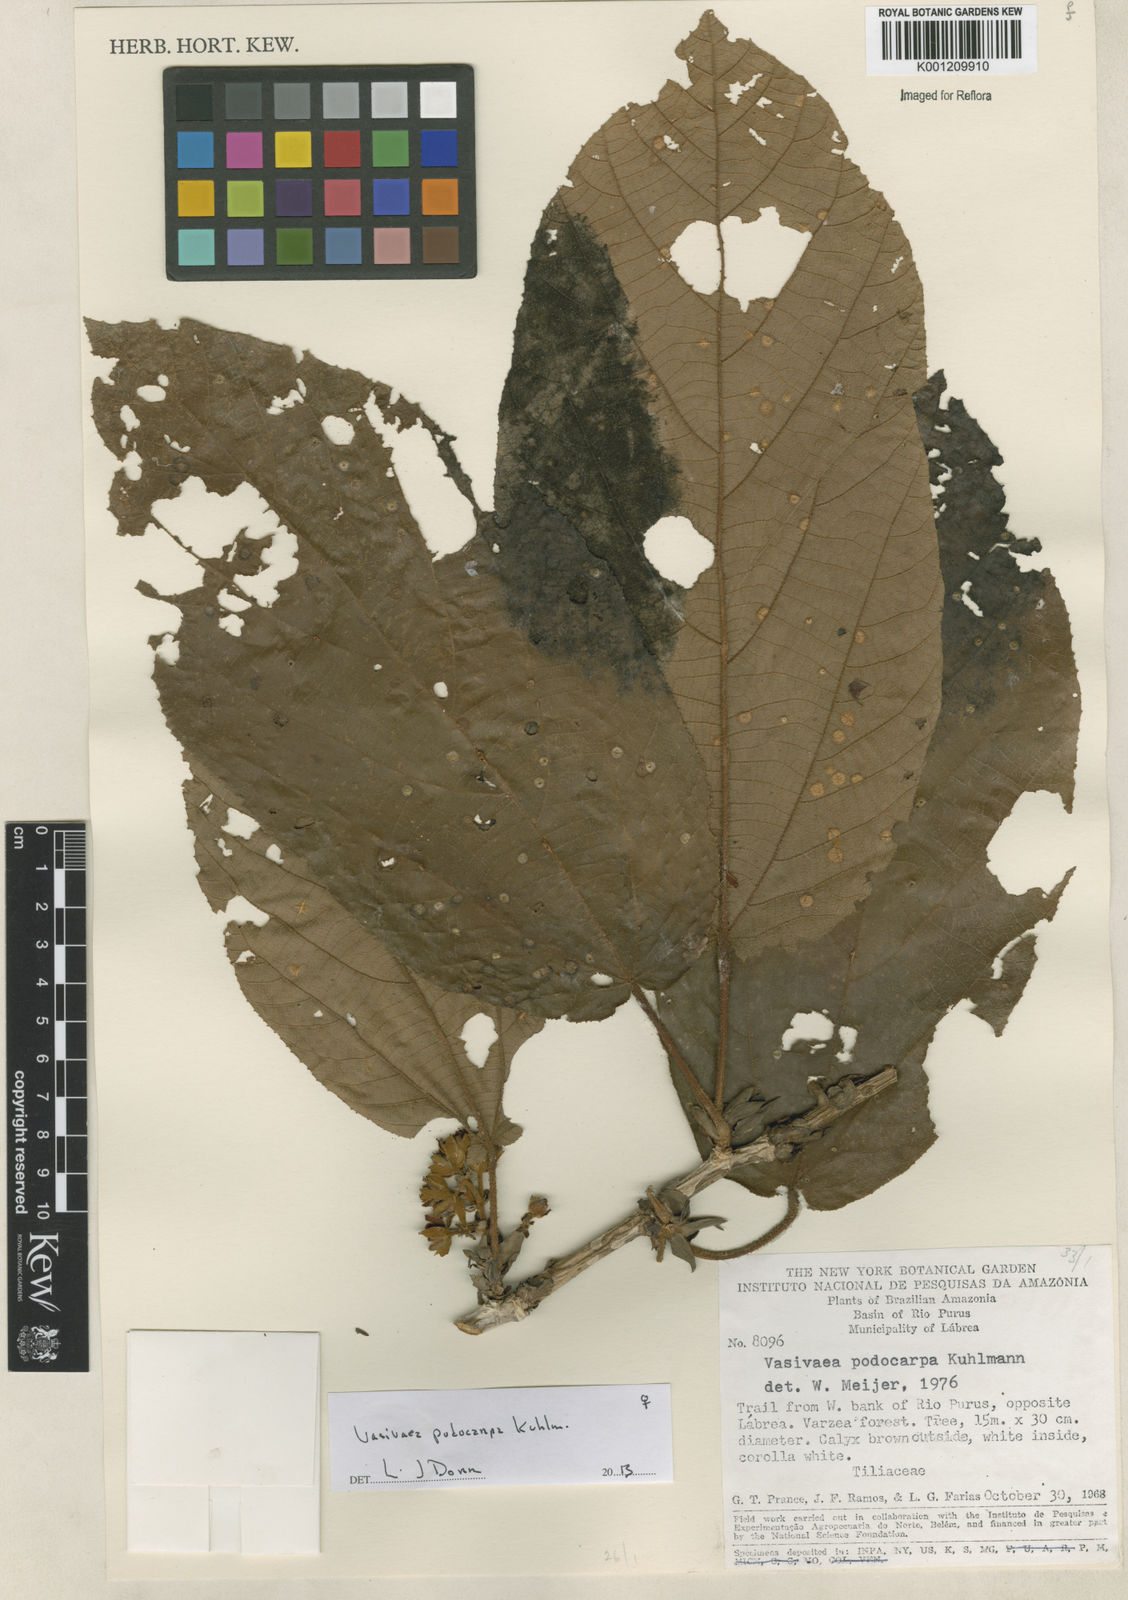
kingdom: Plantae
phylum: Tracheophyta
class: Magnoliopsida
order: Malvales
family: Malvaceae
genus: Vasivaea
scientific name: Vasivaea podocarpa
